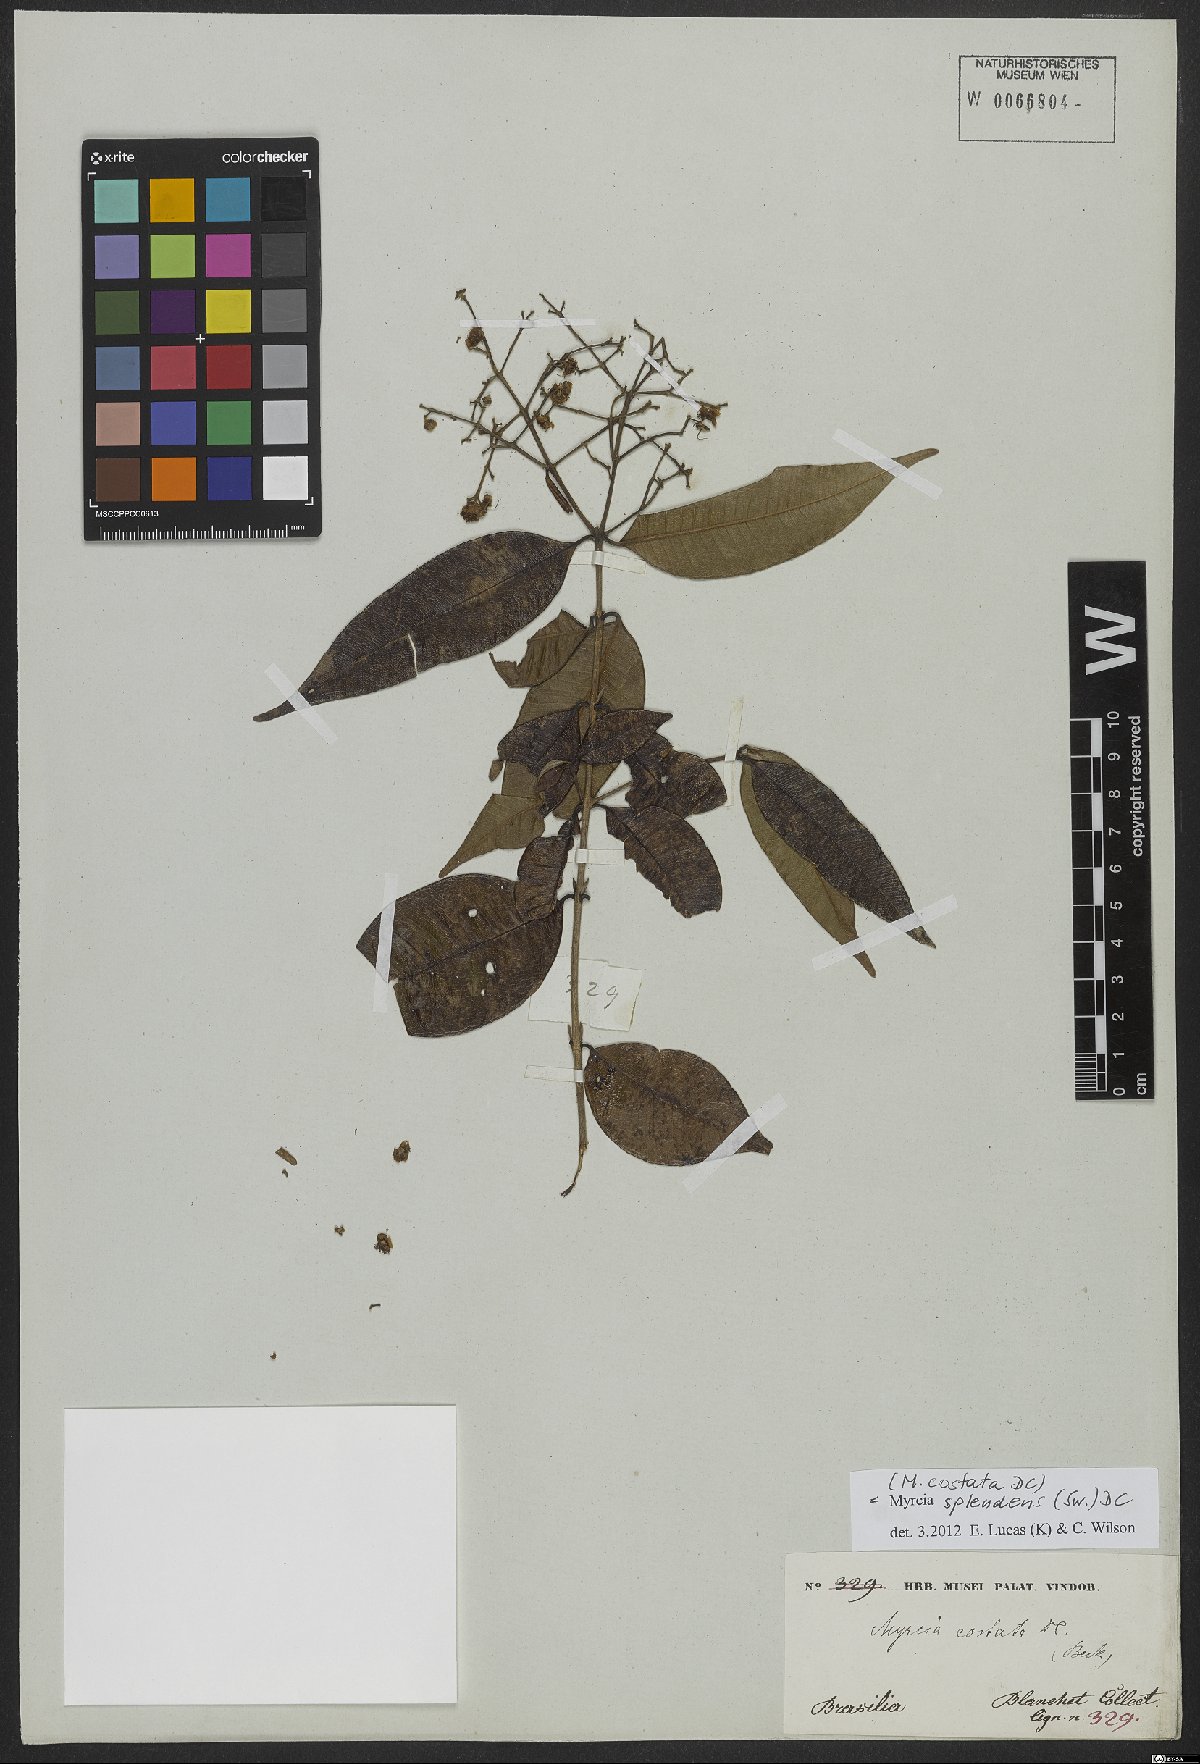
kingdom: Plantae
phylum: Tracheophyta
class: Magnoliopsida
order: Myrtales
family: Myrtaceae
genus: Myrcia
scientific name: Myrcia splendens
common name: Surinam cherry
